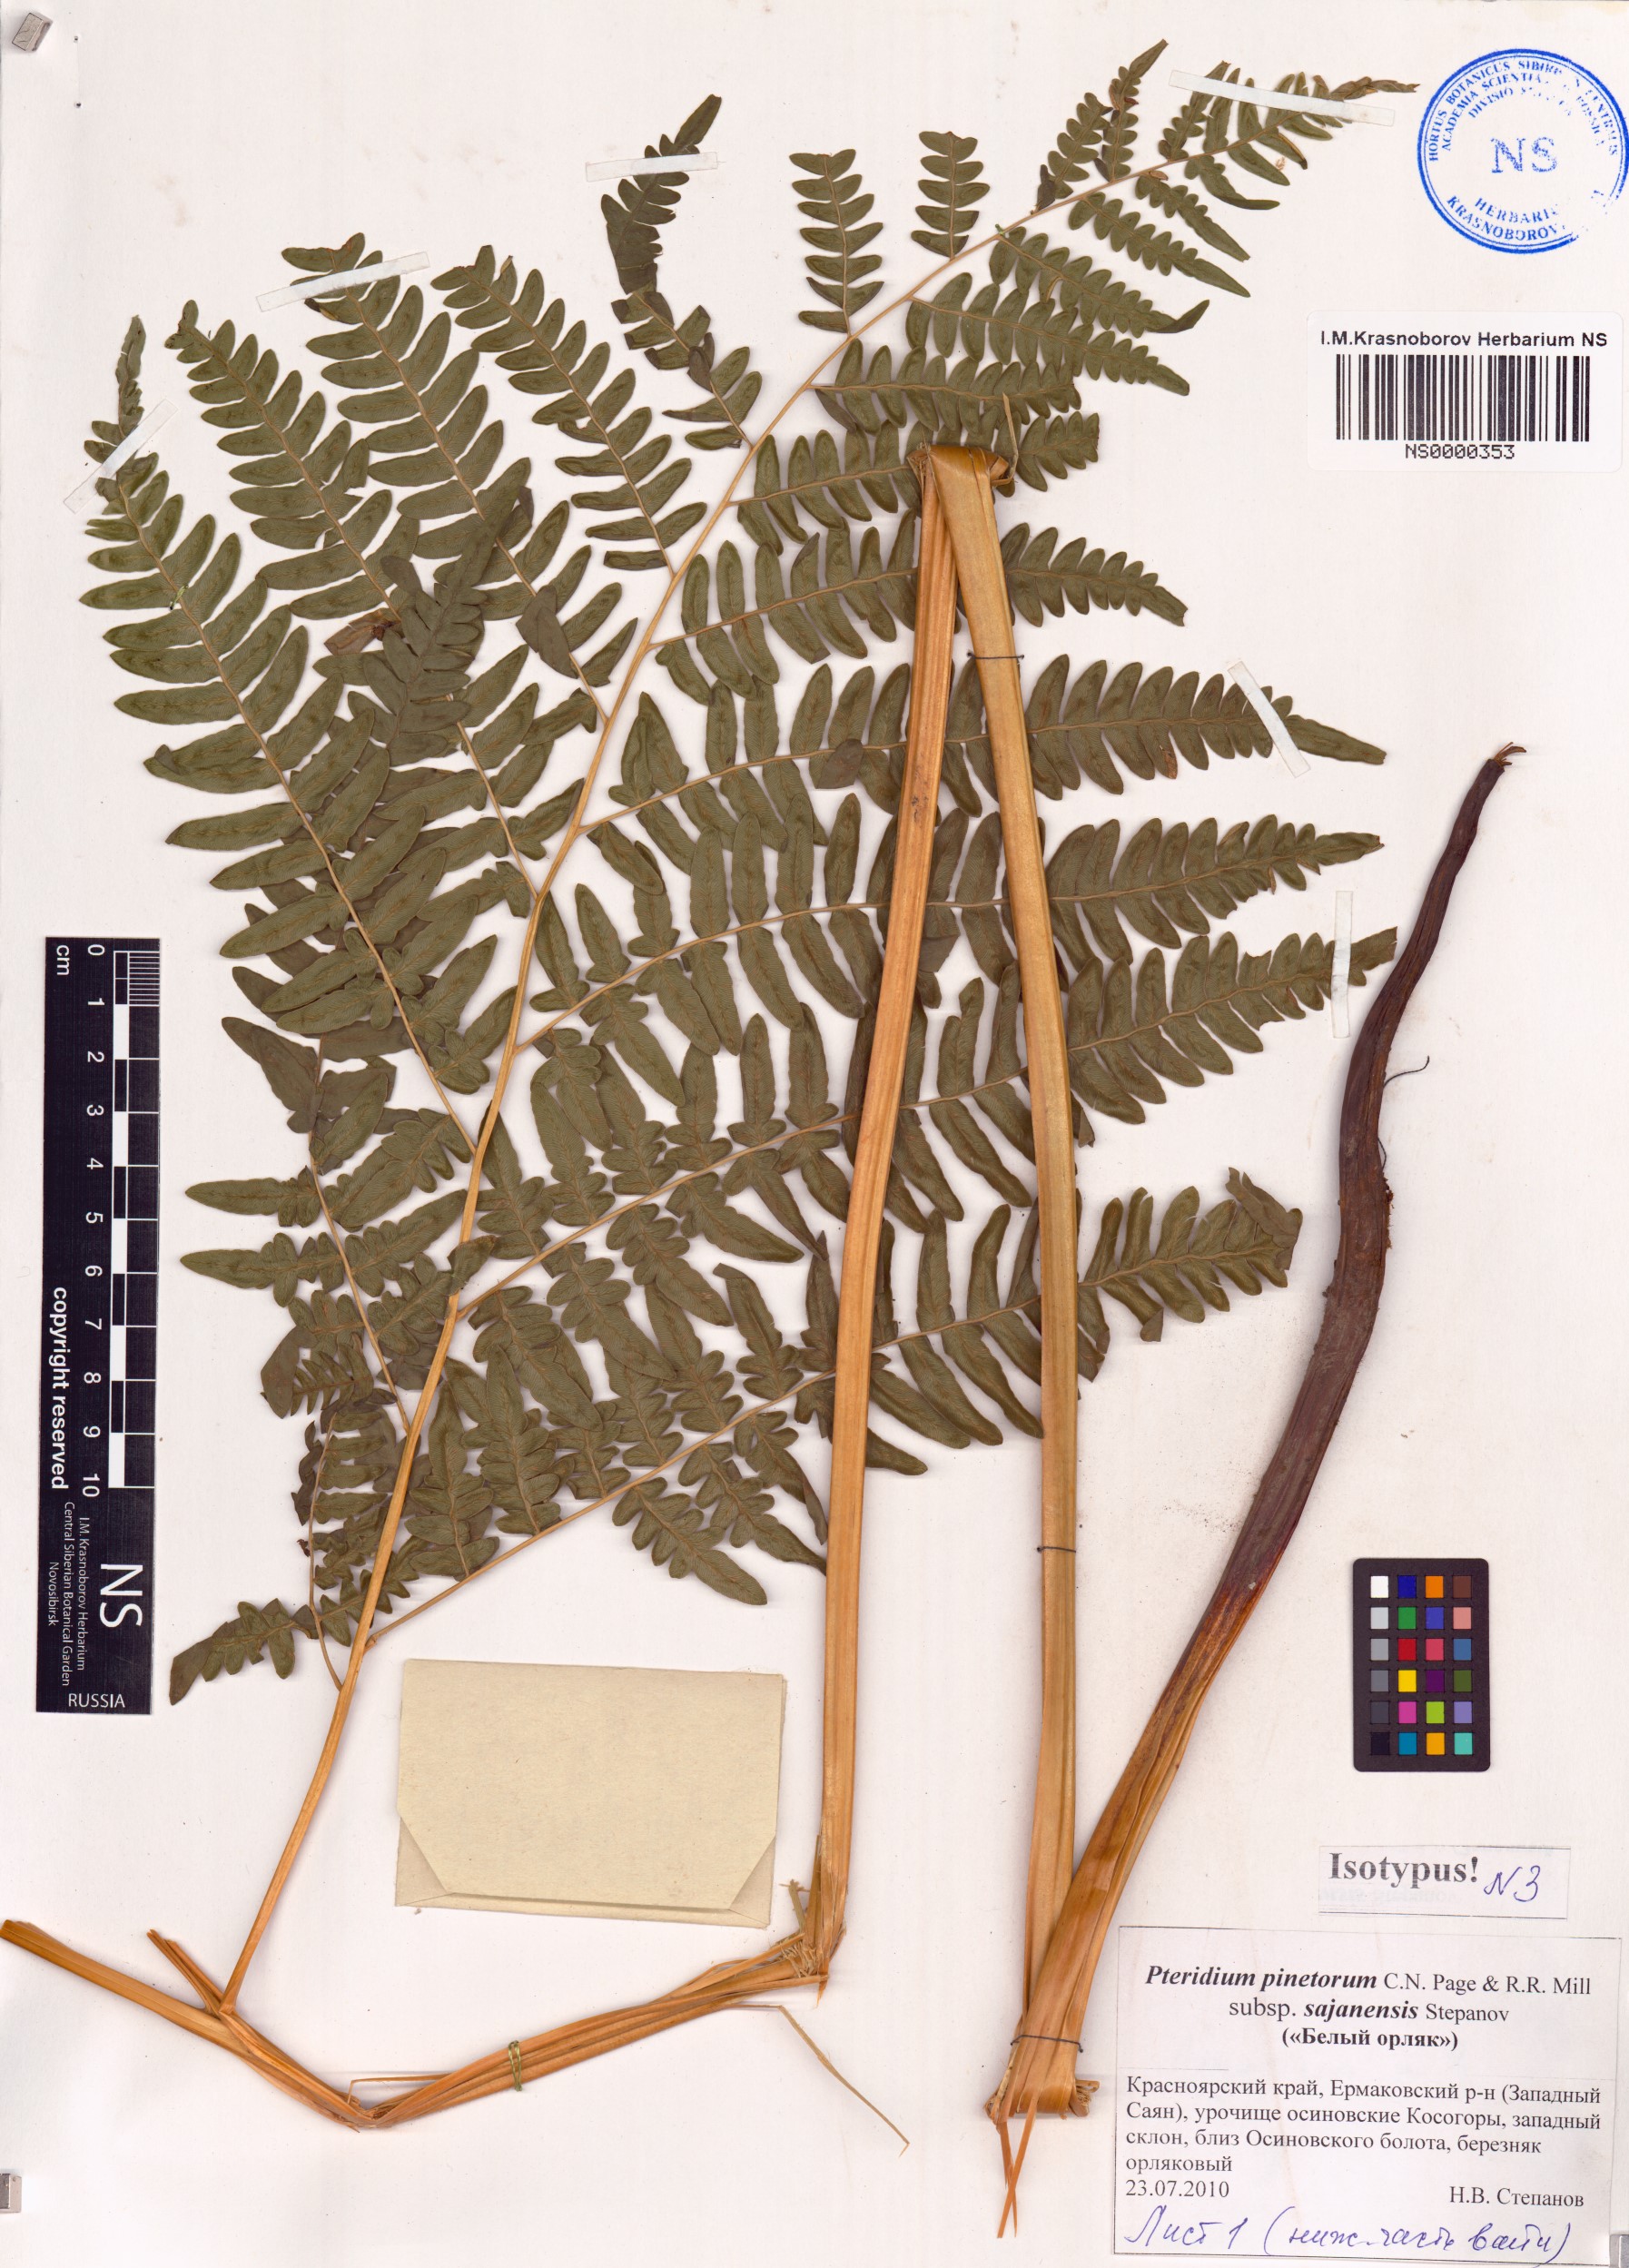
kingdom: Plantae
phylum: Tracheophyta
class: Polypodiopsida
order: Polypodiales
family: Dennstaedtiaceae
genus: Pteridium
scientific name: Pteridium aquilinum
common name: Bracken
